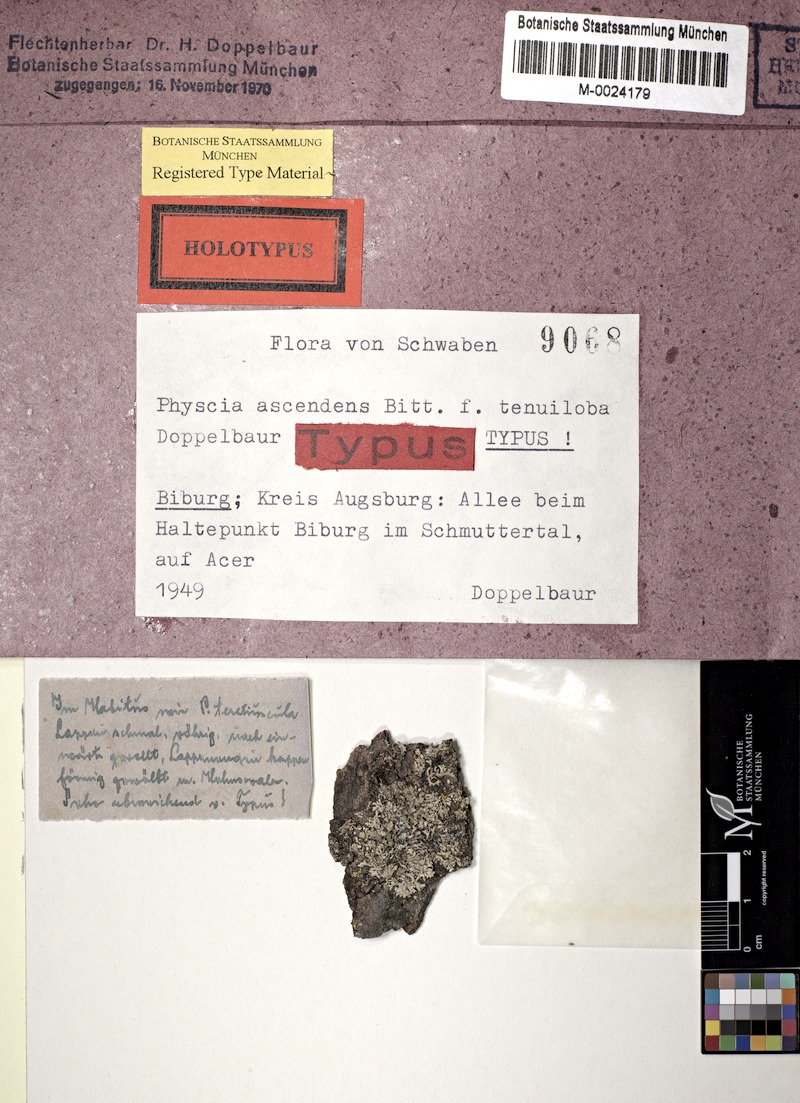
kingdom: Fungi
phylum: Ascomycota
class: Lecanoromycetes
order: Caliciales
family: Physciaceae
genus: Physcia
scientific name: Physcia adscendens
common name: Hooded rosette lichen
